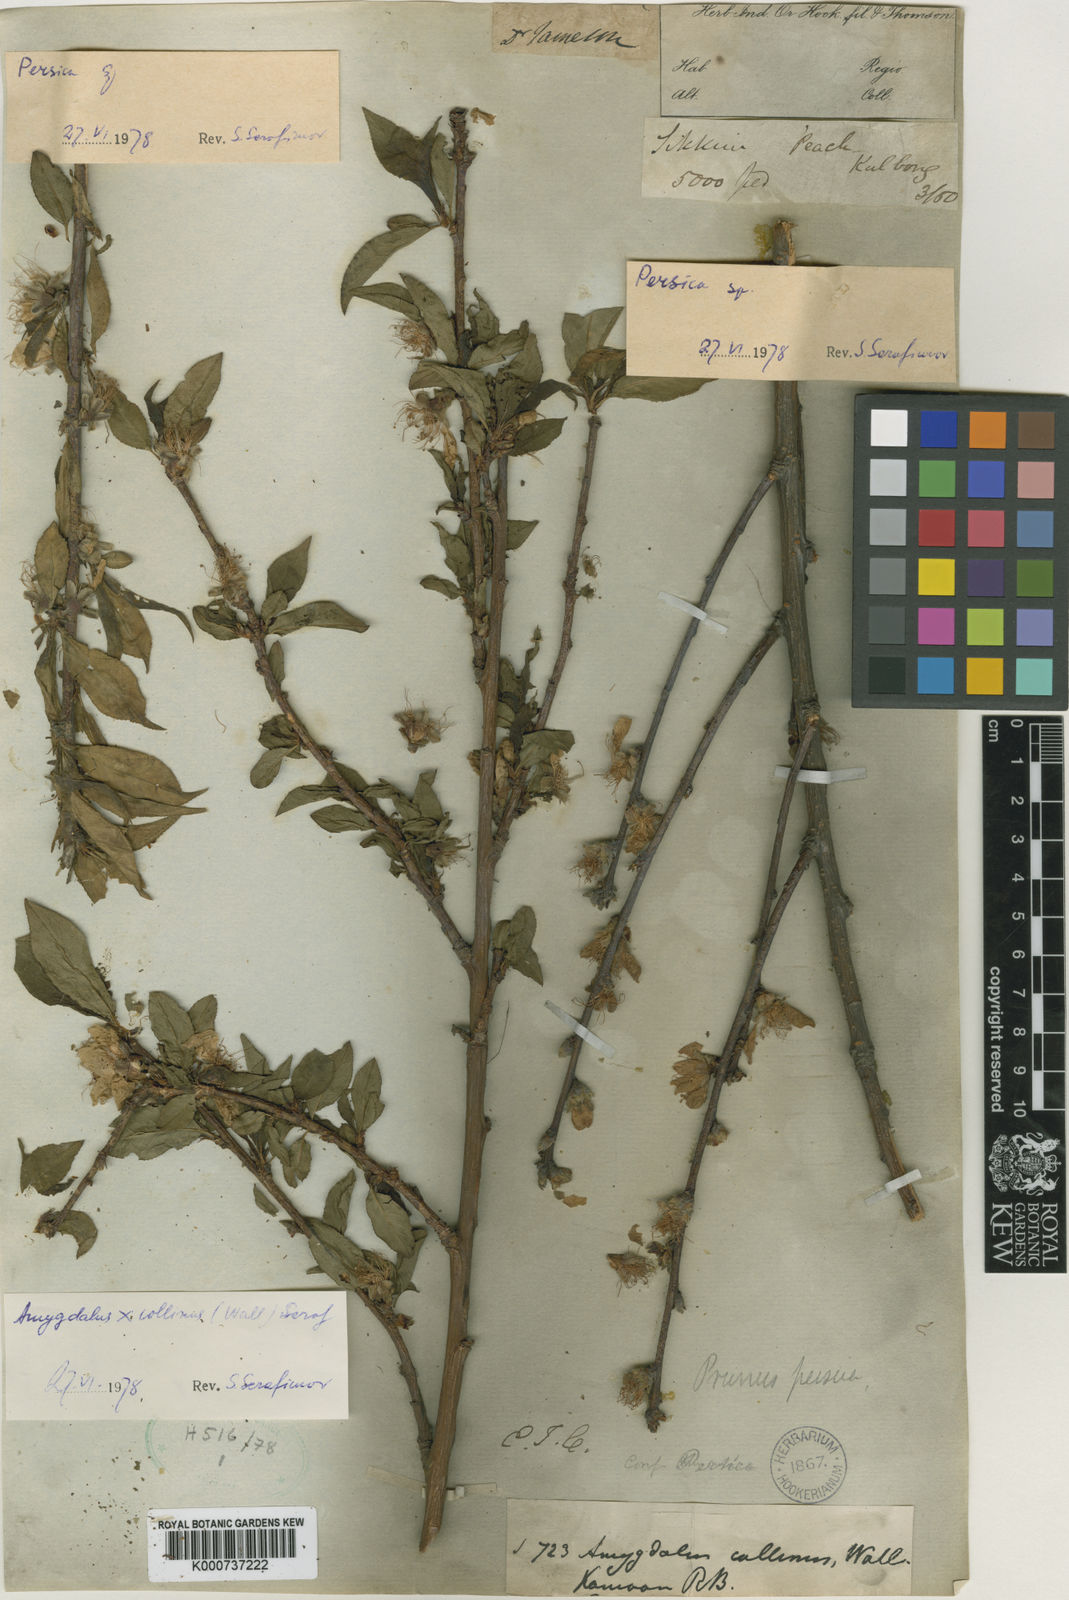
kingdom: Plantae
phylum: Tracheophyta
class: Magnoliopsida
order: Rosales
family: Rosaceae
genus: Prunus
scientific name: Prunus persica
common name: Peach
